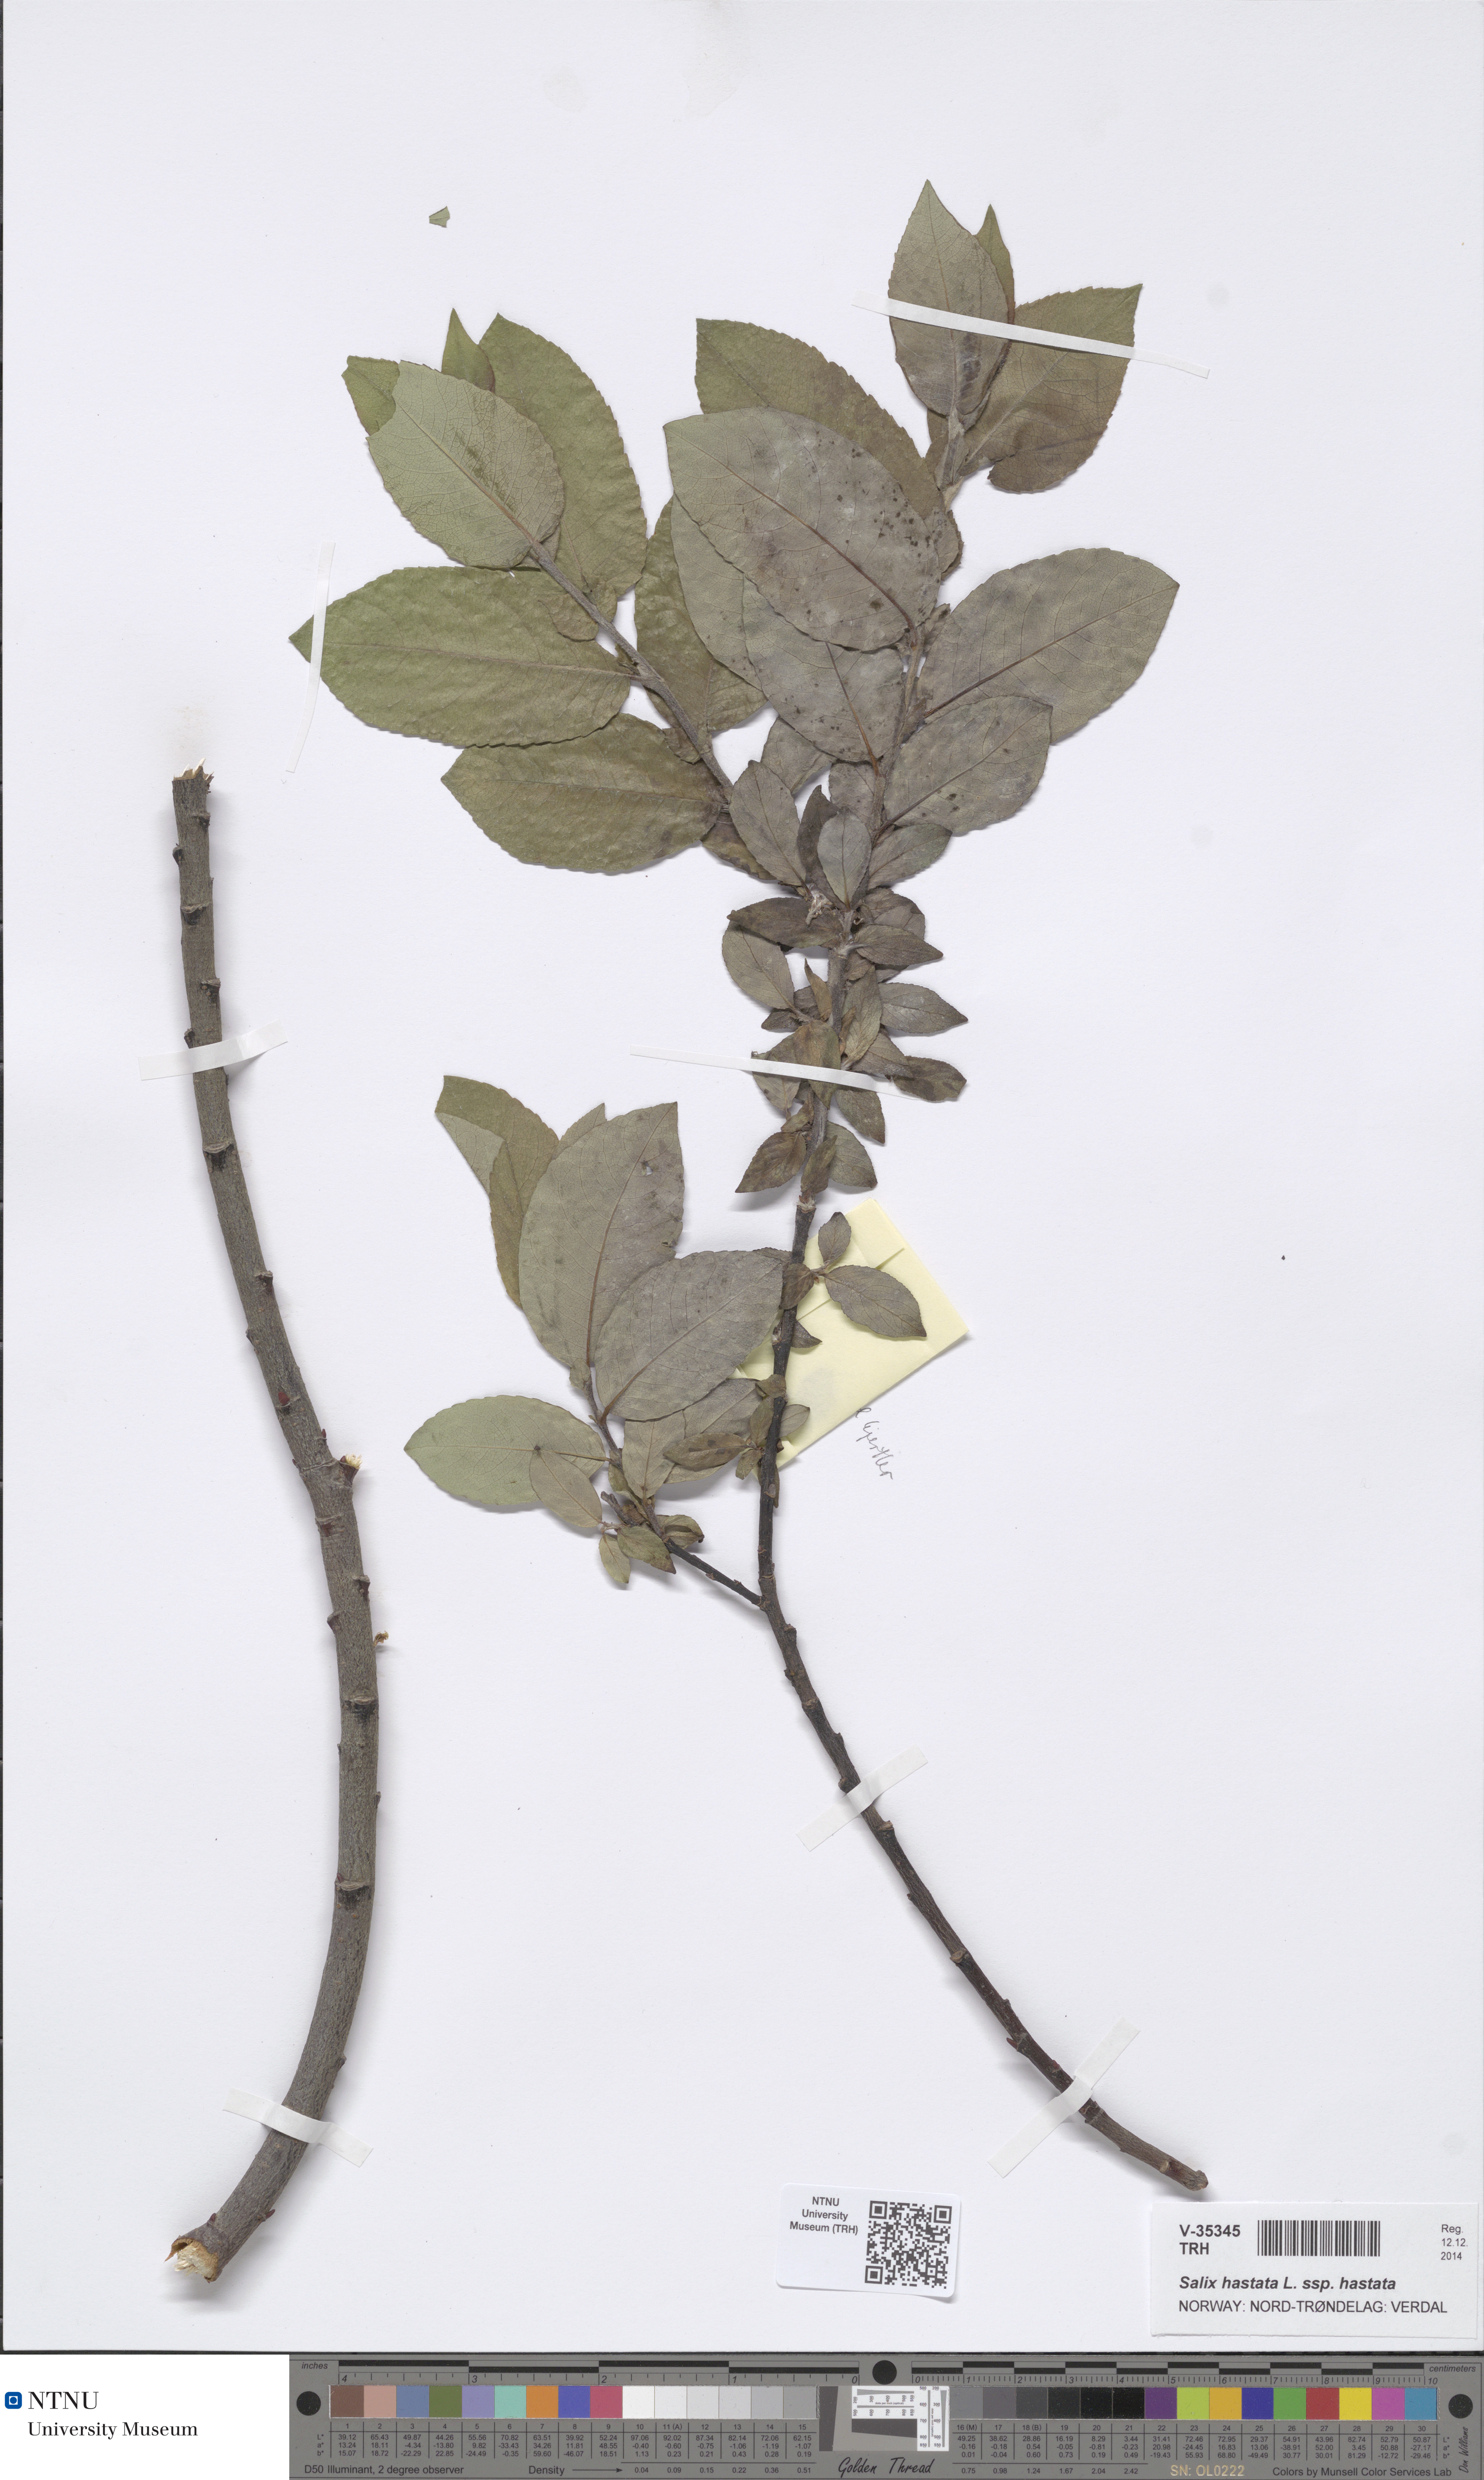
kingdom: Plantae
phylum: Tracheophyta
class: Magnoliopsida
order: Malpighiales
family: Salicaceae
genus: Salix
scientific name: Salix hastata
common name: Halberd willow
